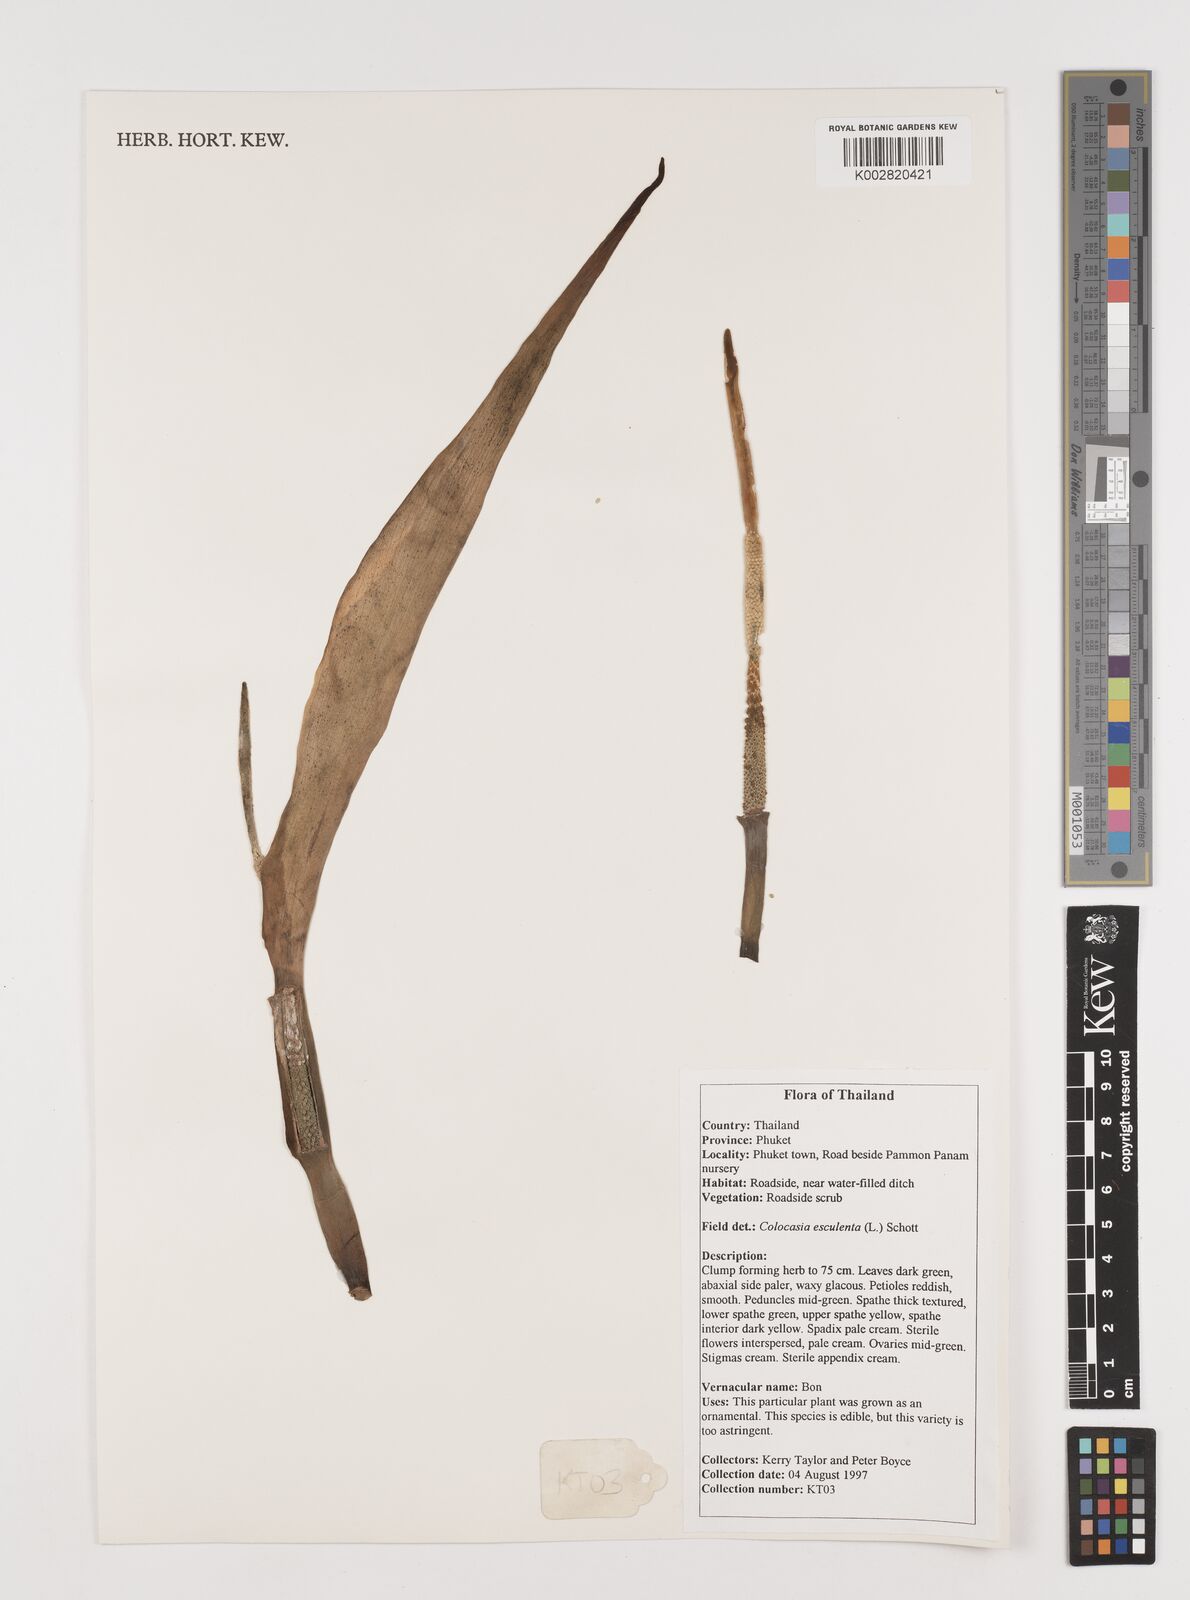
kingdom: Plantae
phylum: Tracheophyta
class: Liliopsida
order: Alismatales
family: Araceae
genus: Colocasia
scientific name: Colocasia esculenta
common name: Taro
